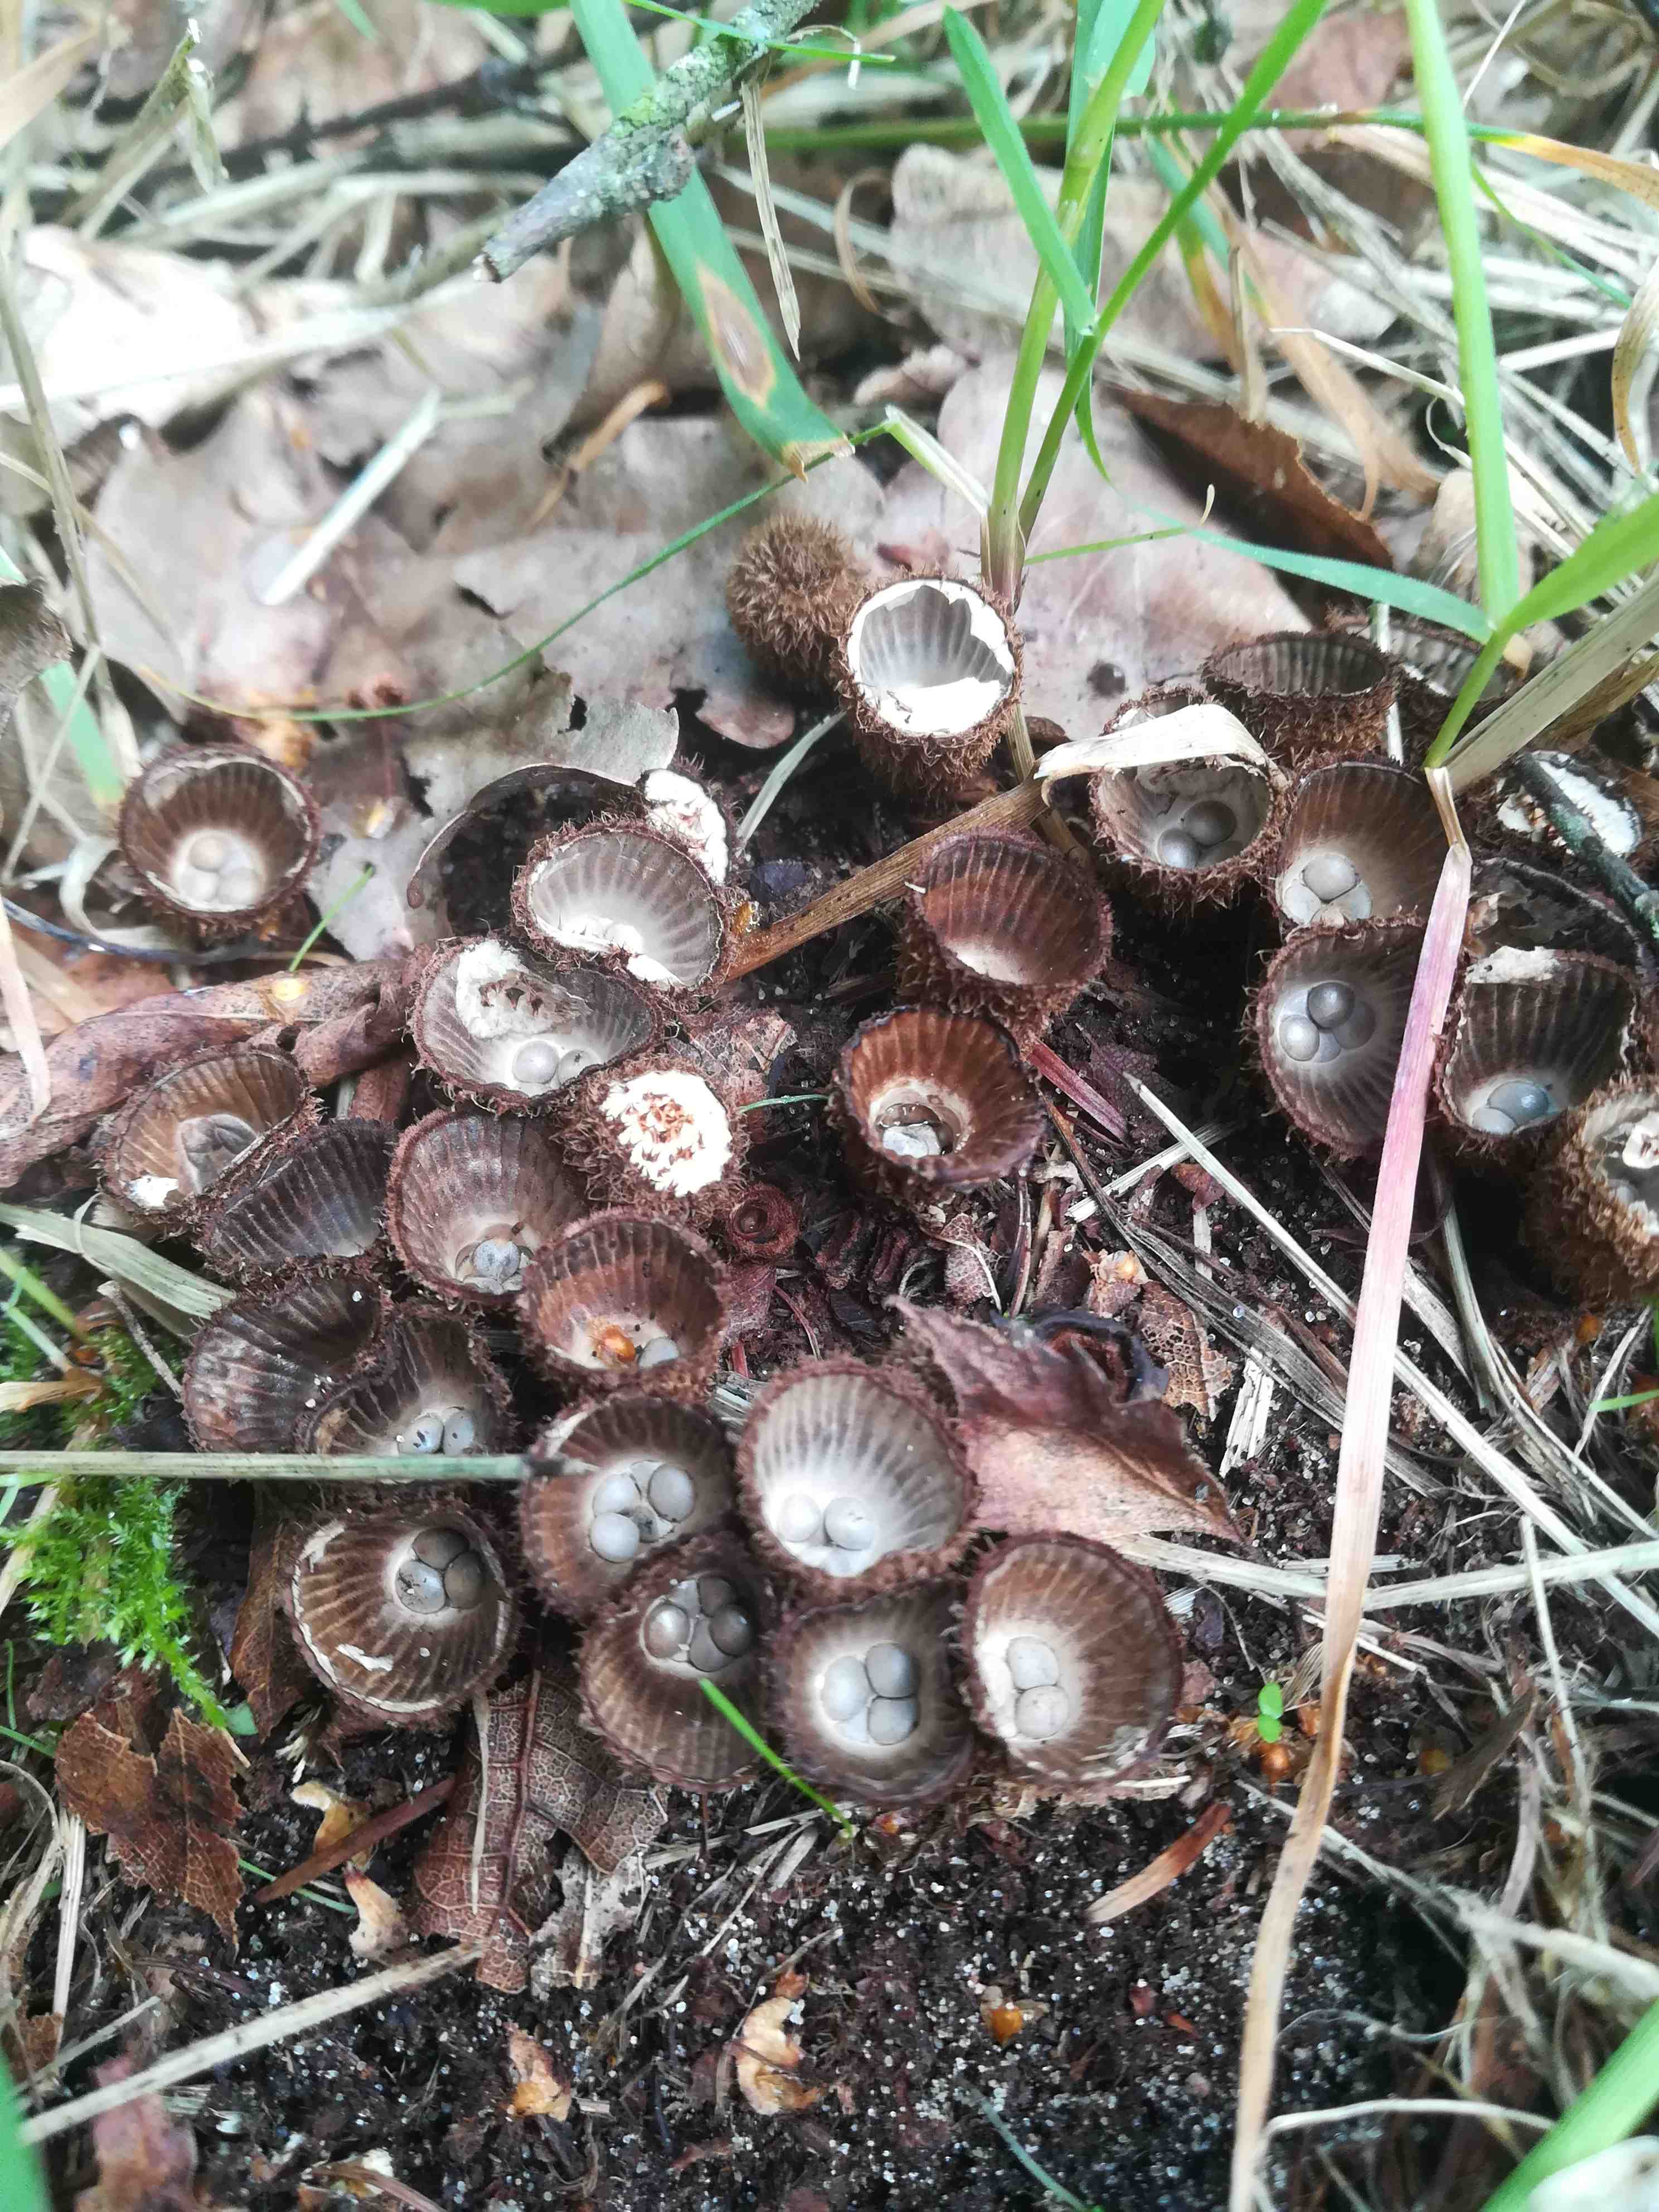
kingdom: Fungi
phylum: Basidiomycota
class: Agaricomycetes
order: Agaricales
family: Agaricaceae
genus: Cyathus
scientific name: Cyathus striatus
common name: stribet redesvamp
